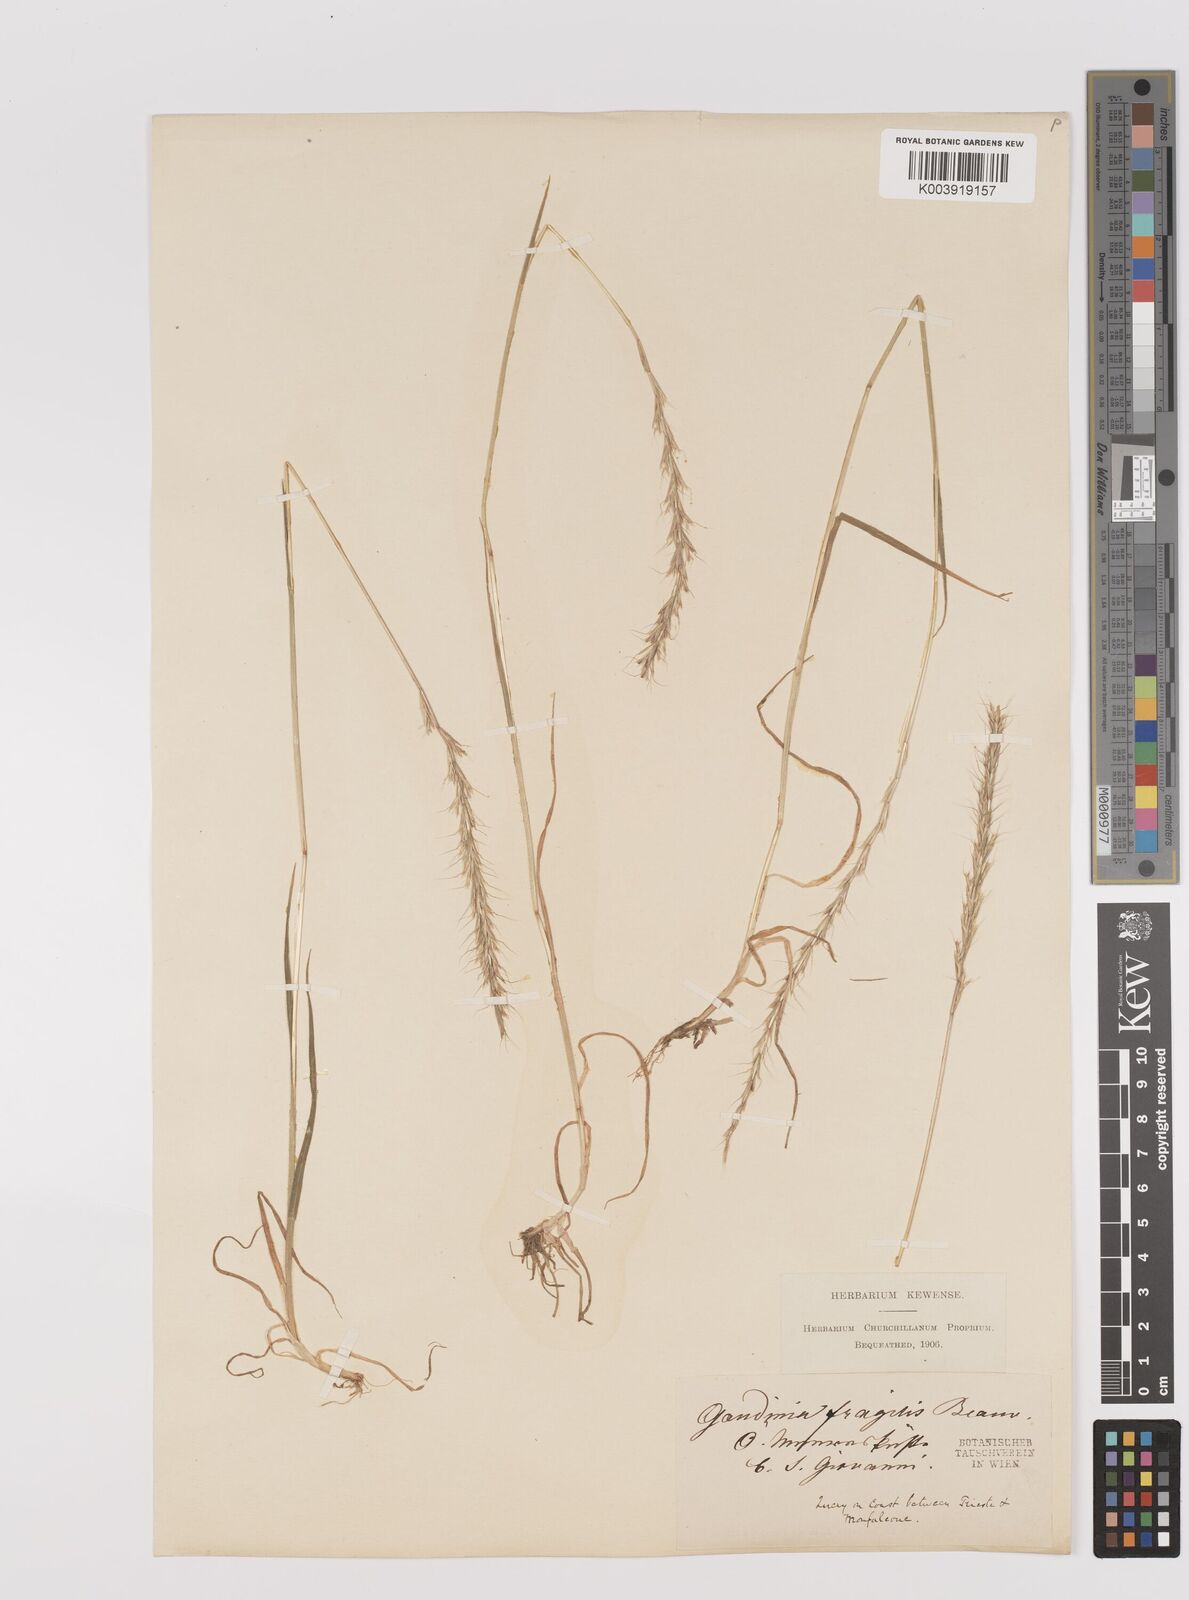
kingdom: Plantae
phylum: Tracheophyta
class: Liliopsida
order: Poales
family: Poaceae
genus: Gaudinia
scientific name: Gaudinia fragilis
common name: French oat-grass
